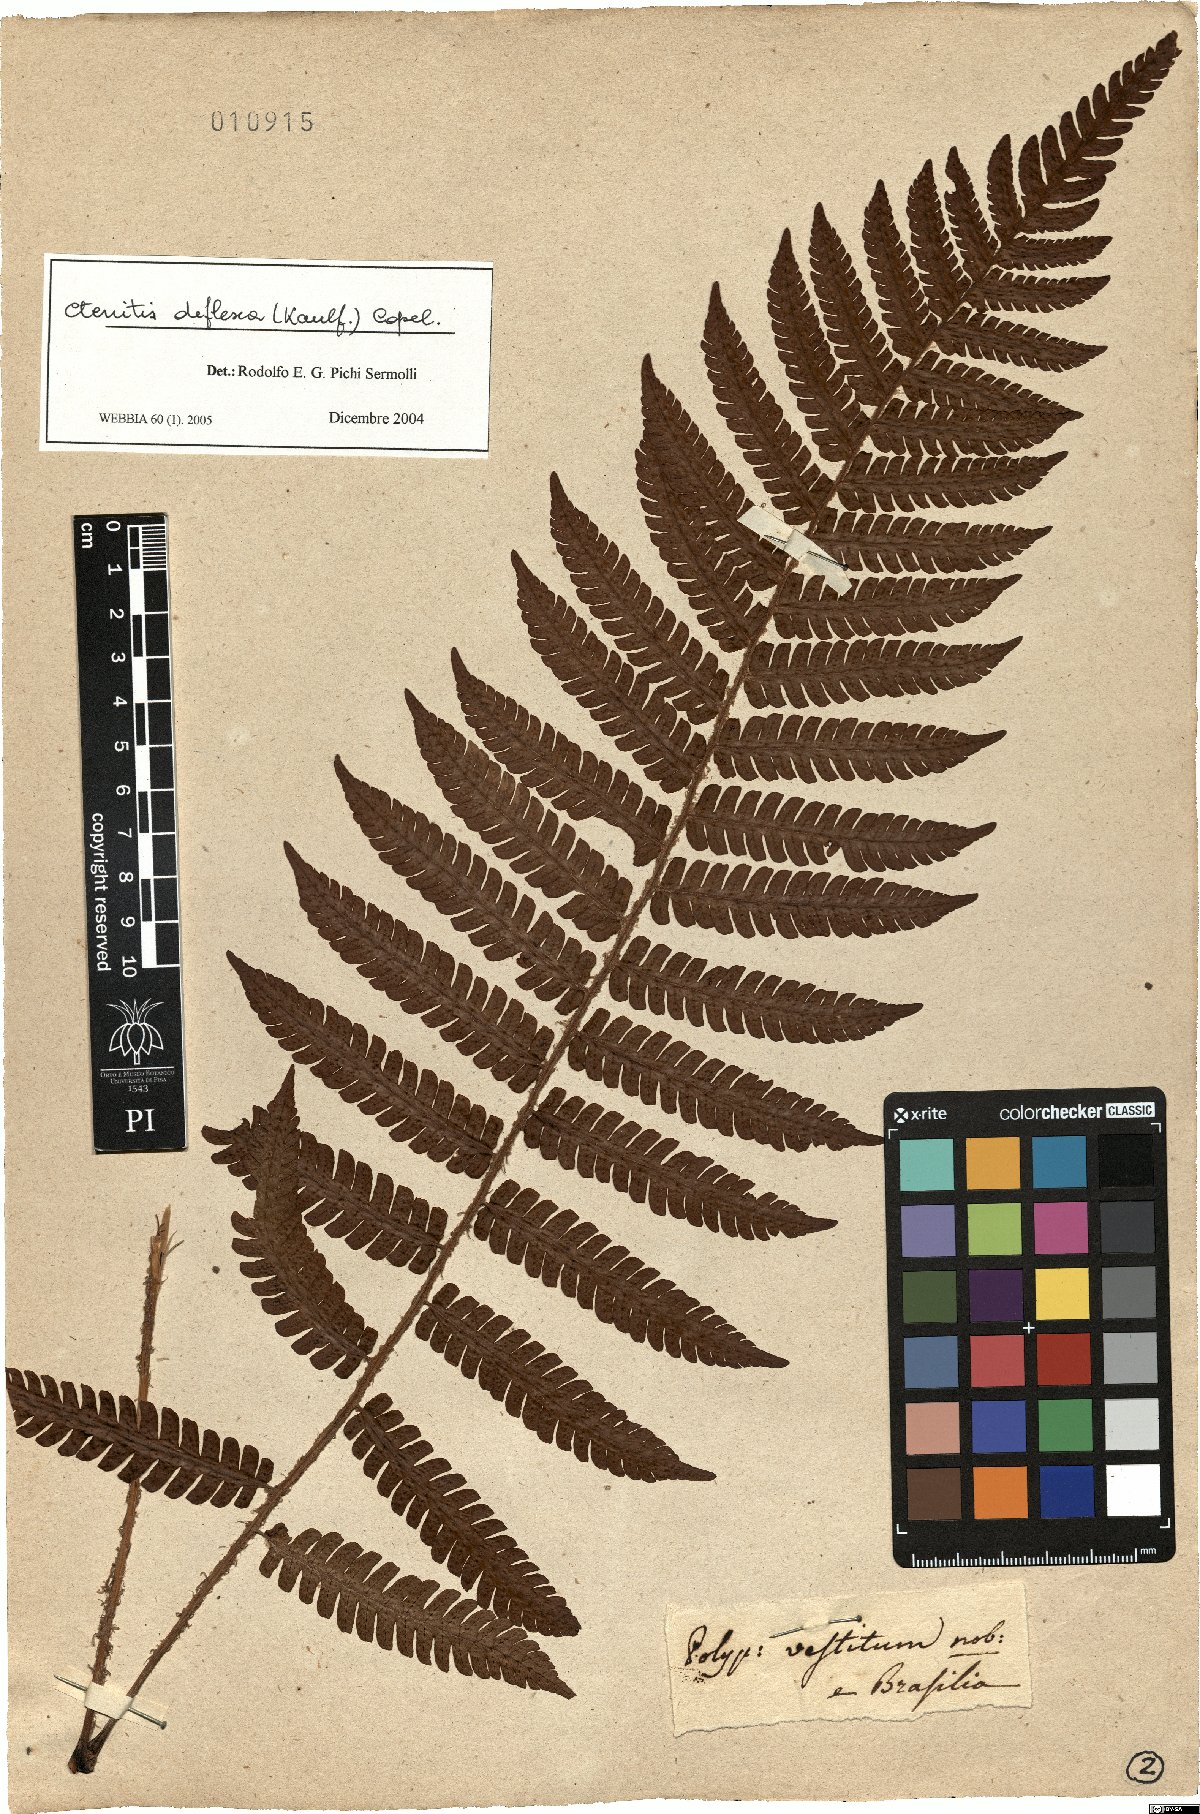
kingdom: Plantae
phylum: Tracheophyta
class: Polypodiopsida
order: Polypodiales
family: Dryopteridaceae
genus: Ctenitis
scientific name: Ctenitis deflexa
